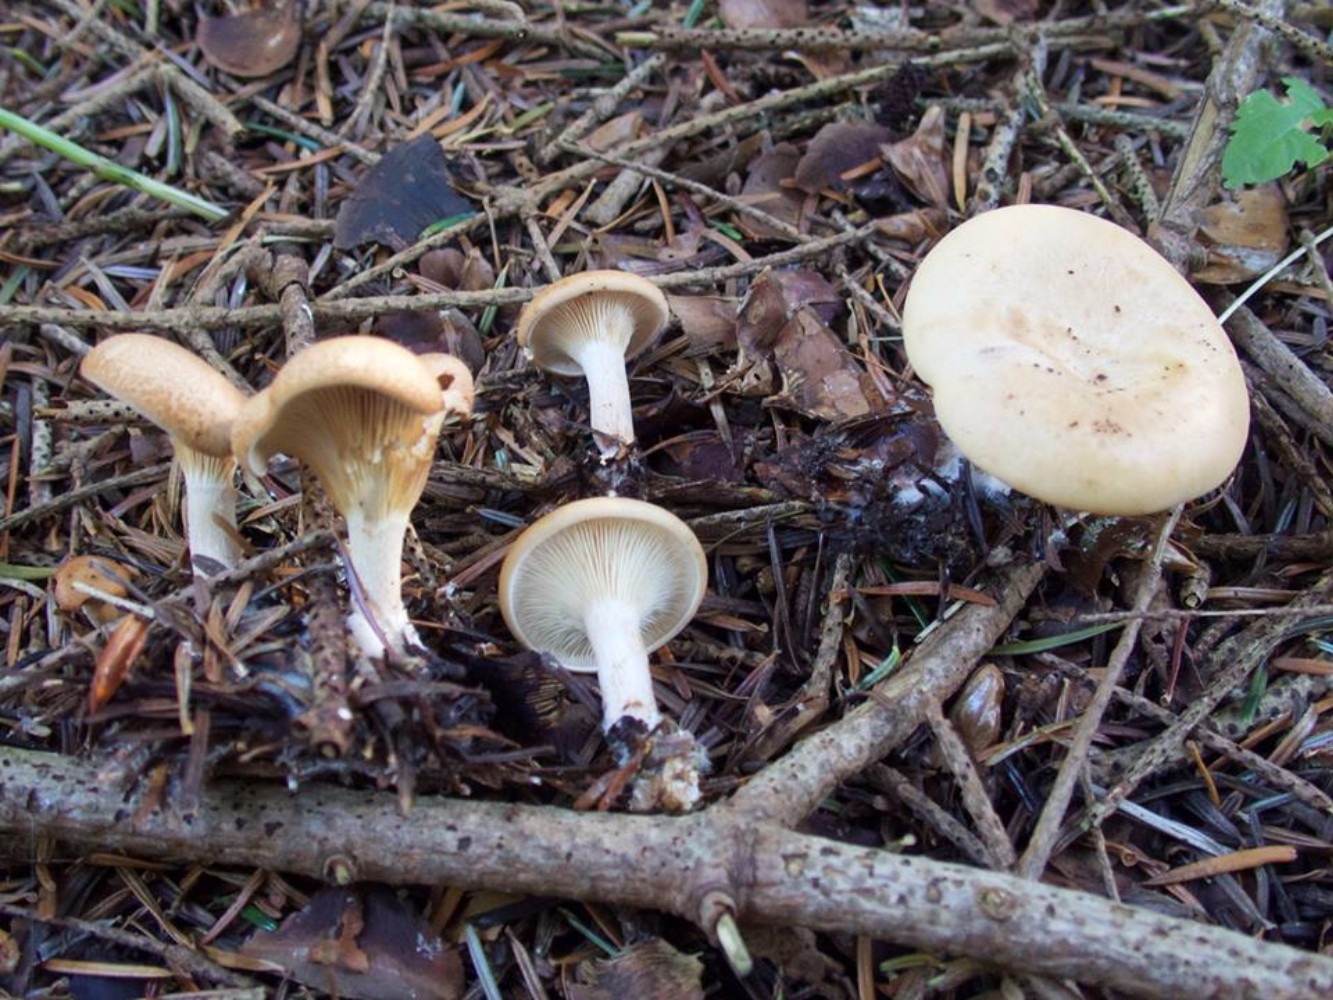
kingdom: Fungi
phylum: Basidiomycota
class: Agaricomycetes
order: Agaricales
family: Tricholomataceae
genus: Paralepista
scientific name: Paralepista gilva
